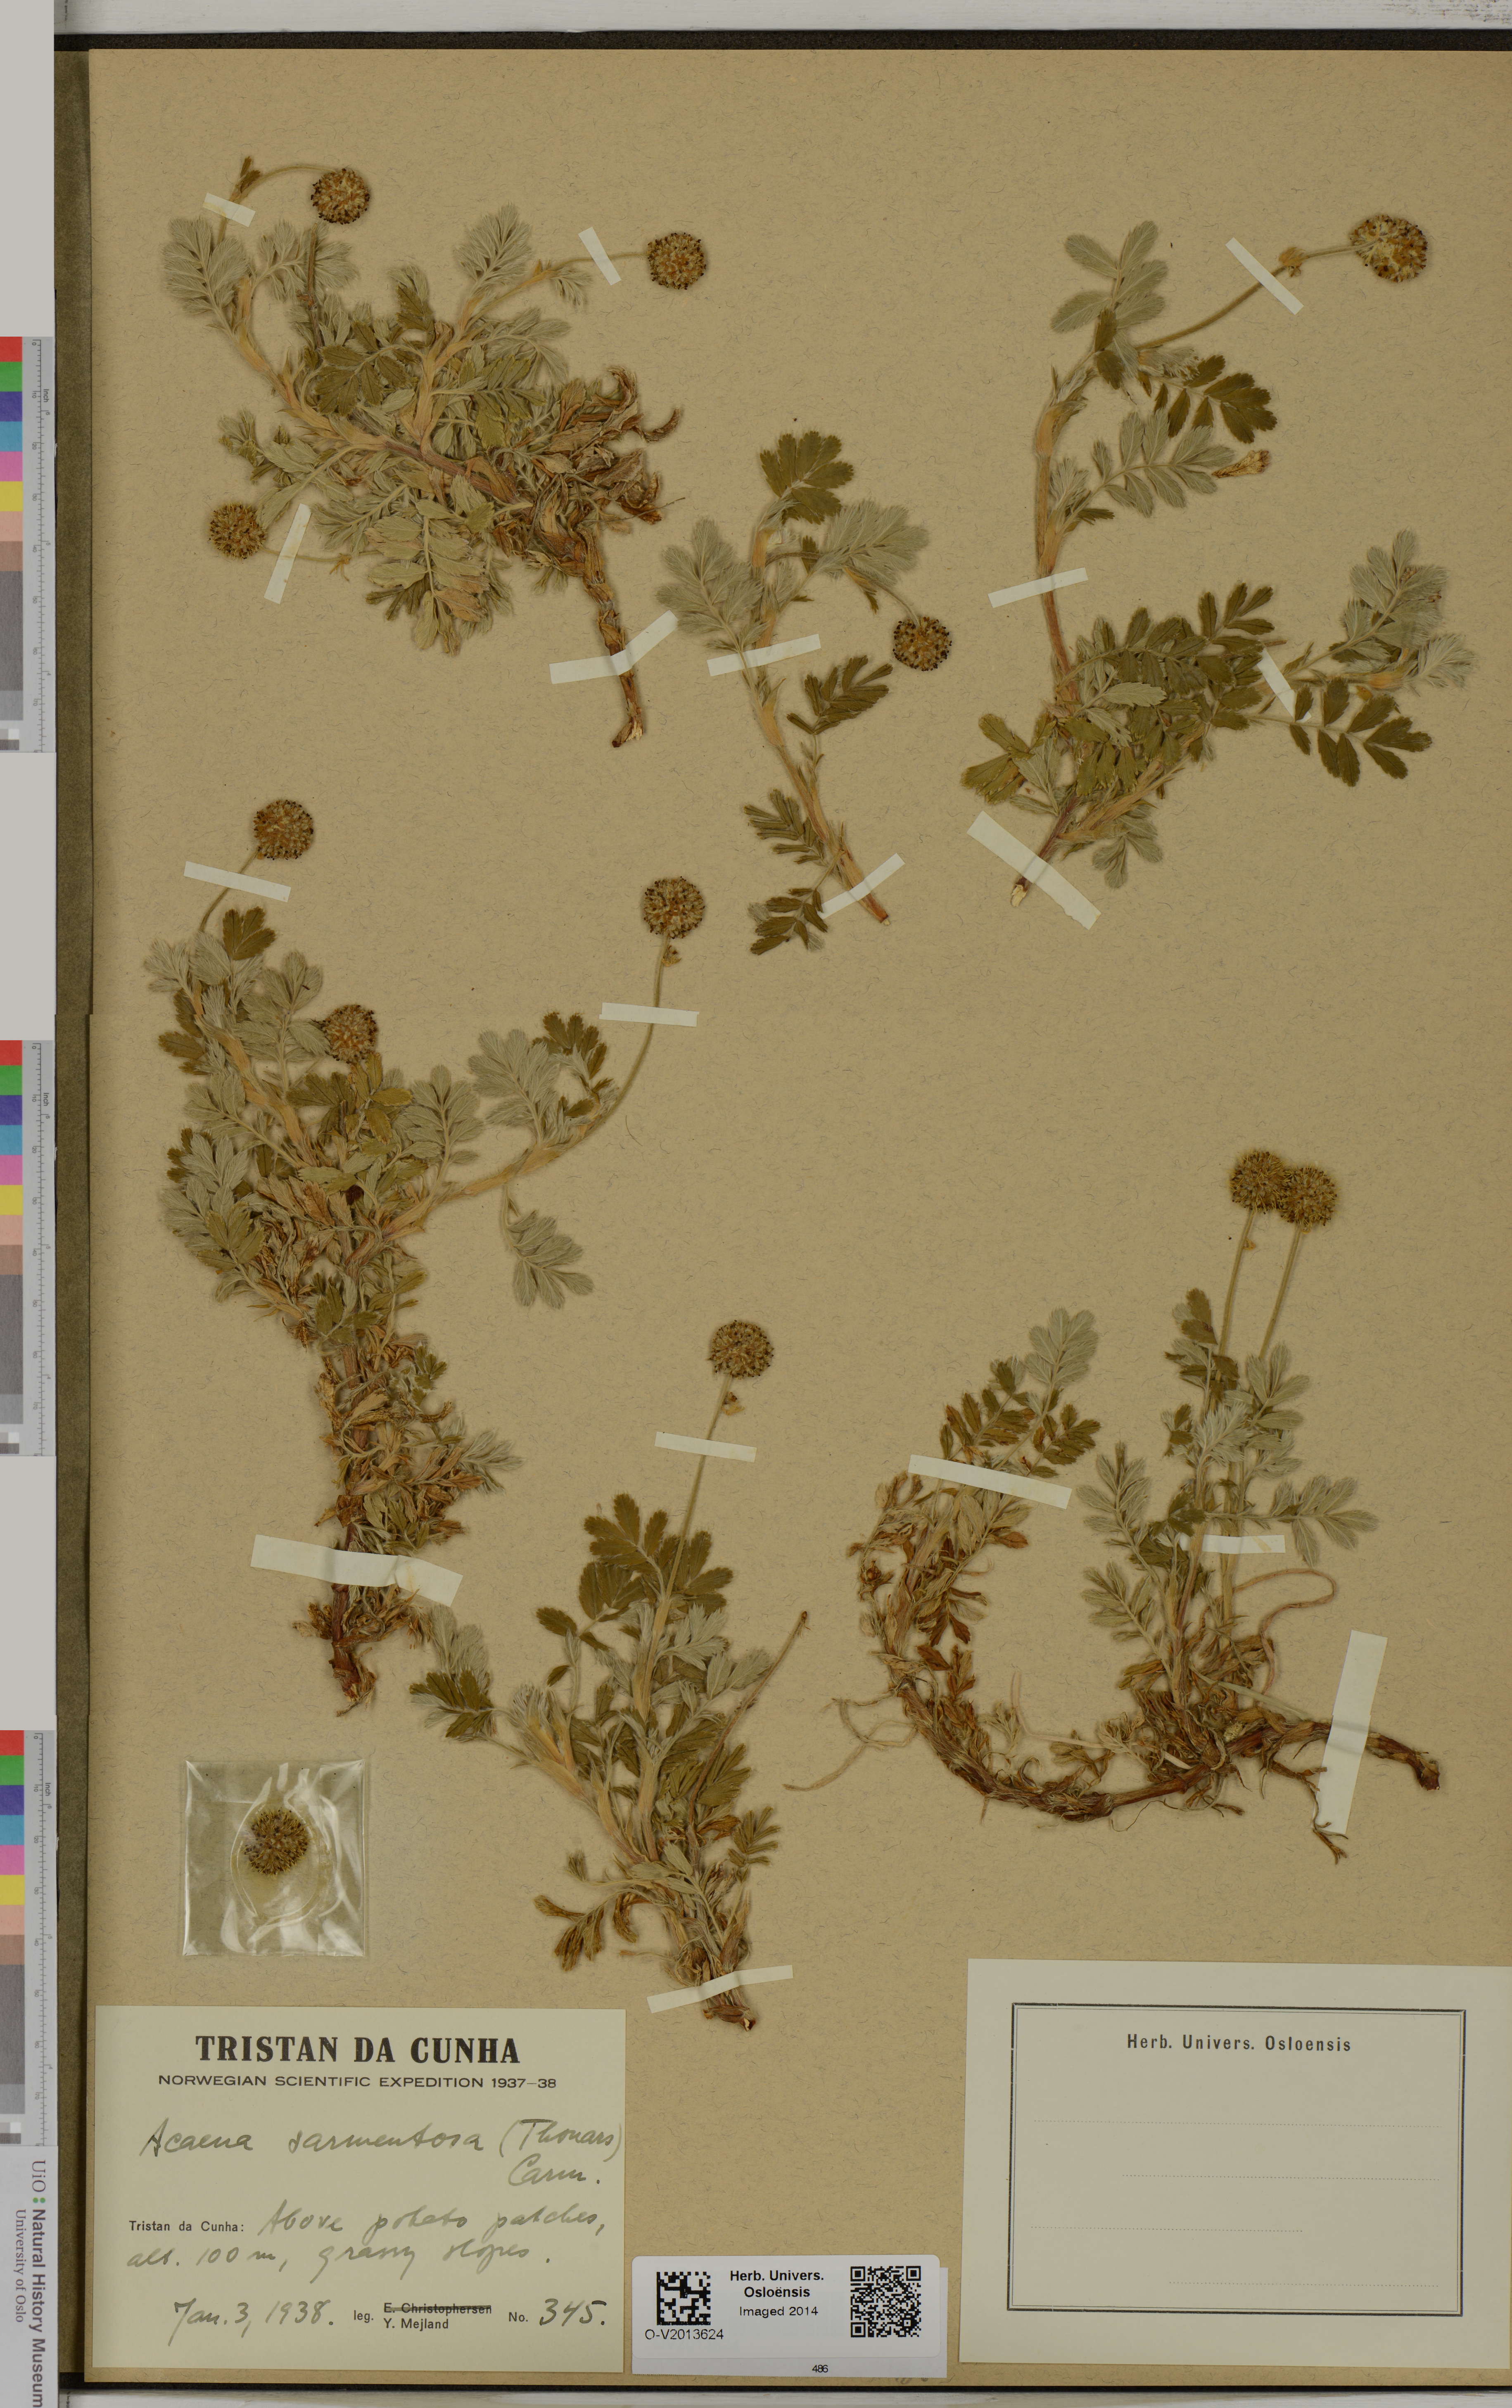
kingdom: Plantae
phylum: Tracheophyta
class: Magnoliopsida
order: Rosales
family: Rosaceae
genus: Acaena
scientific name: Acaena sarmentosa
